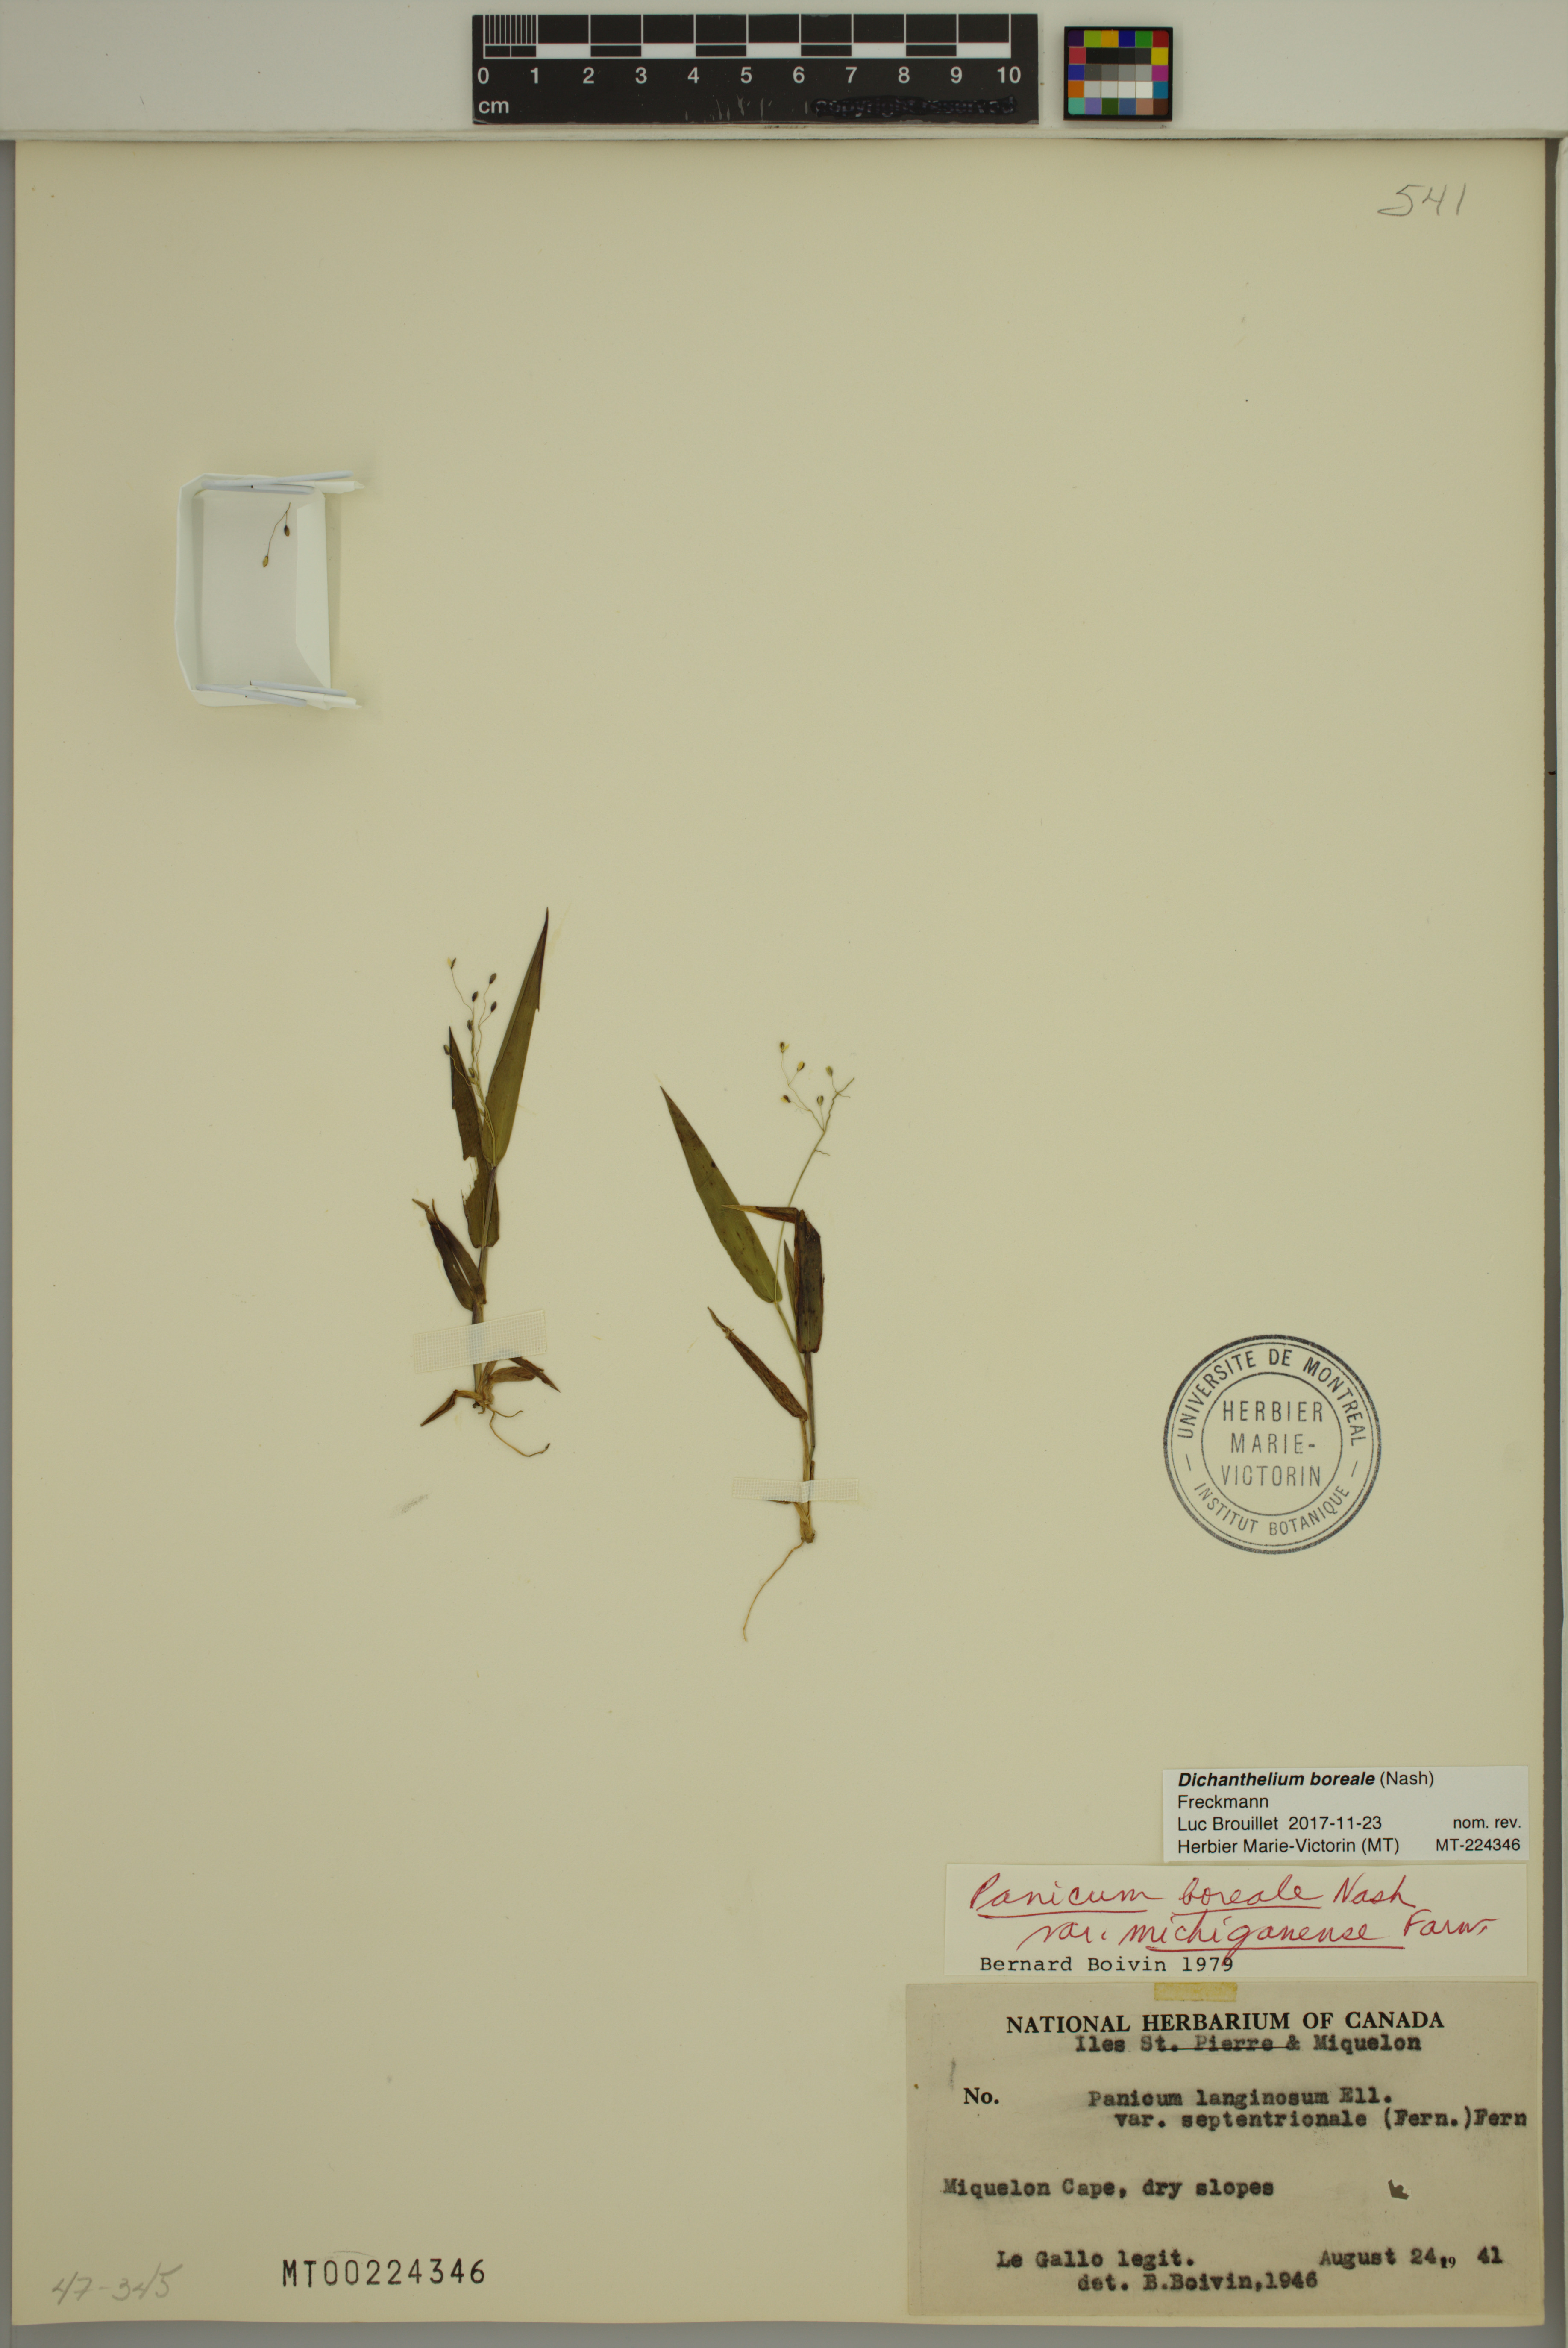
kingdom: Plantae
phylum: Tracheophyta
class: Liliopsida
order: Poales
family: Poaceae
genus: Dichanthelium
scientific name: Dichanthelium boreale
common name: Northern panicgrass
